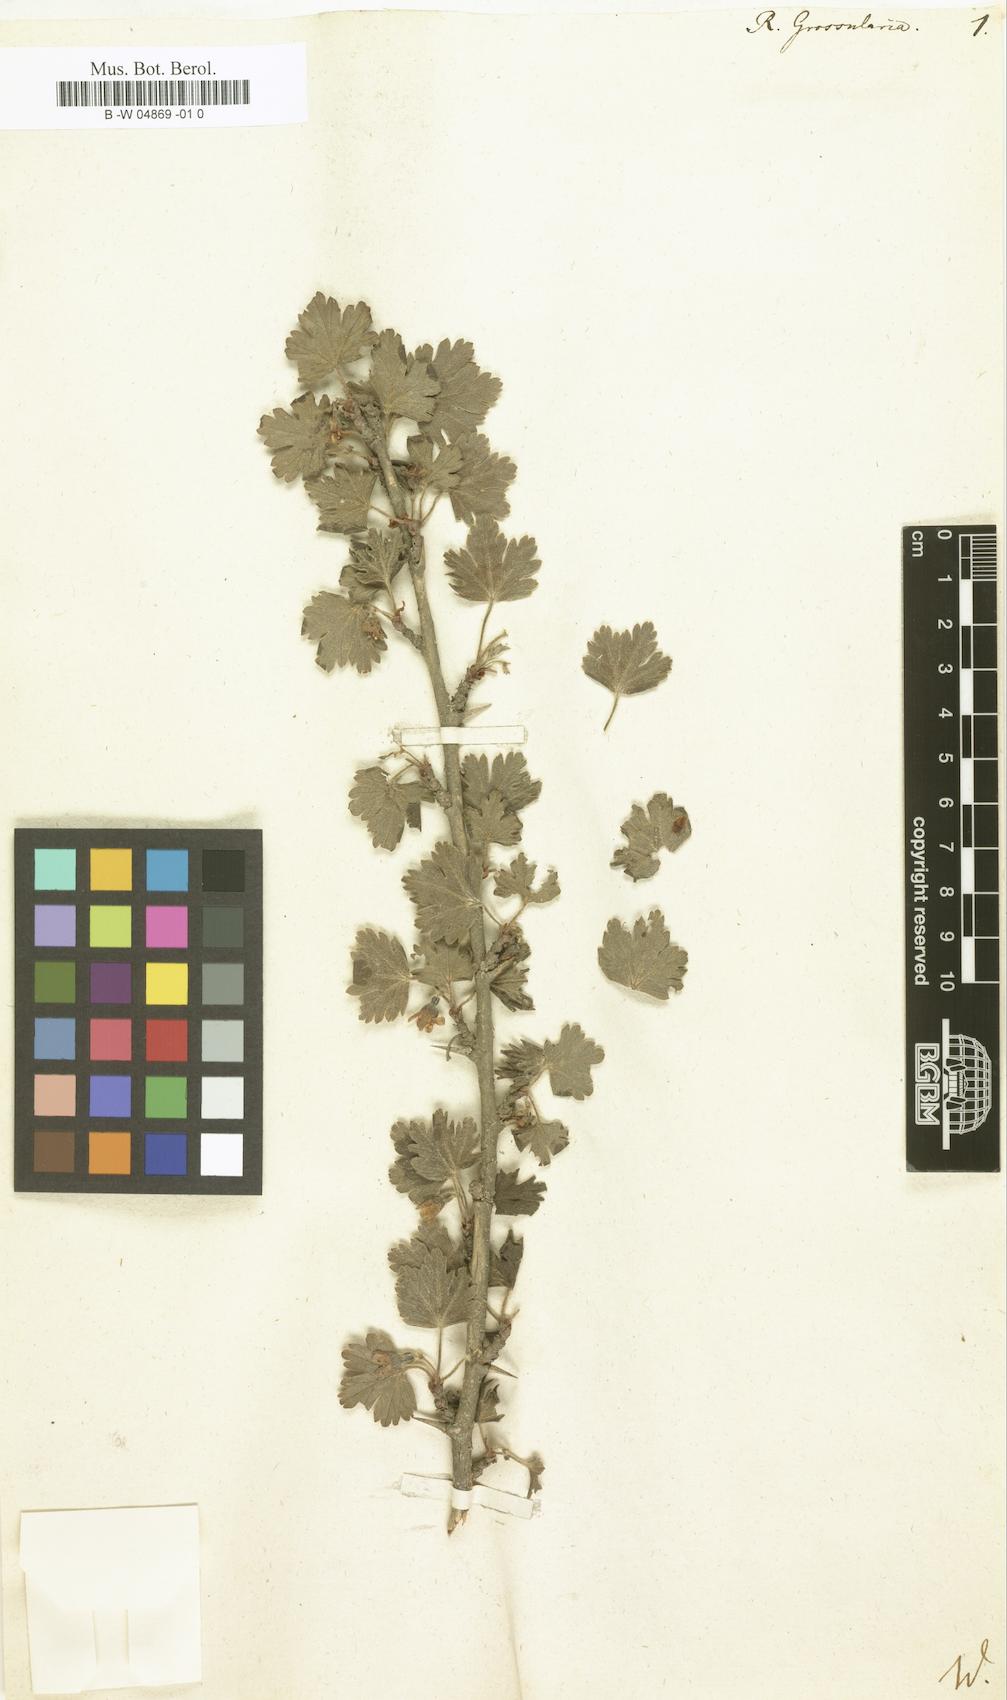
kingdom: Plantae
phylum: Tracheophyta
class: Magnoliopsida
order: Saxifragales
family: Grossulariaceae
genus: Ribes
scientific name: Ribes uva-crispa
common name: Gooseberry
